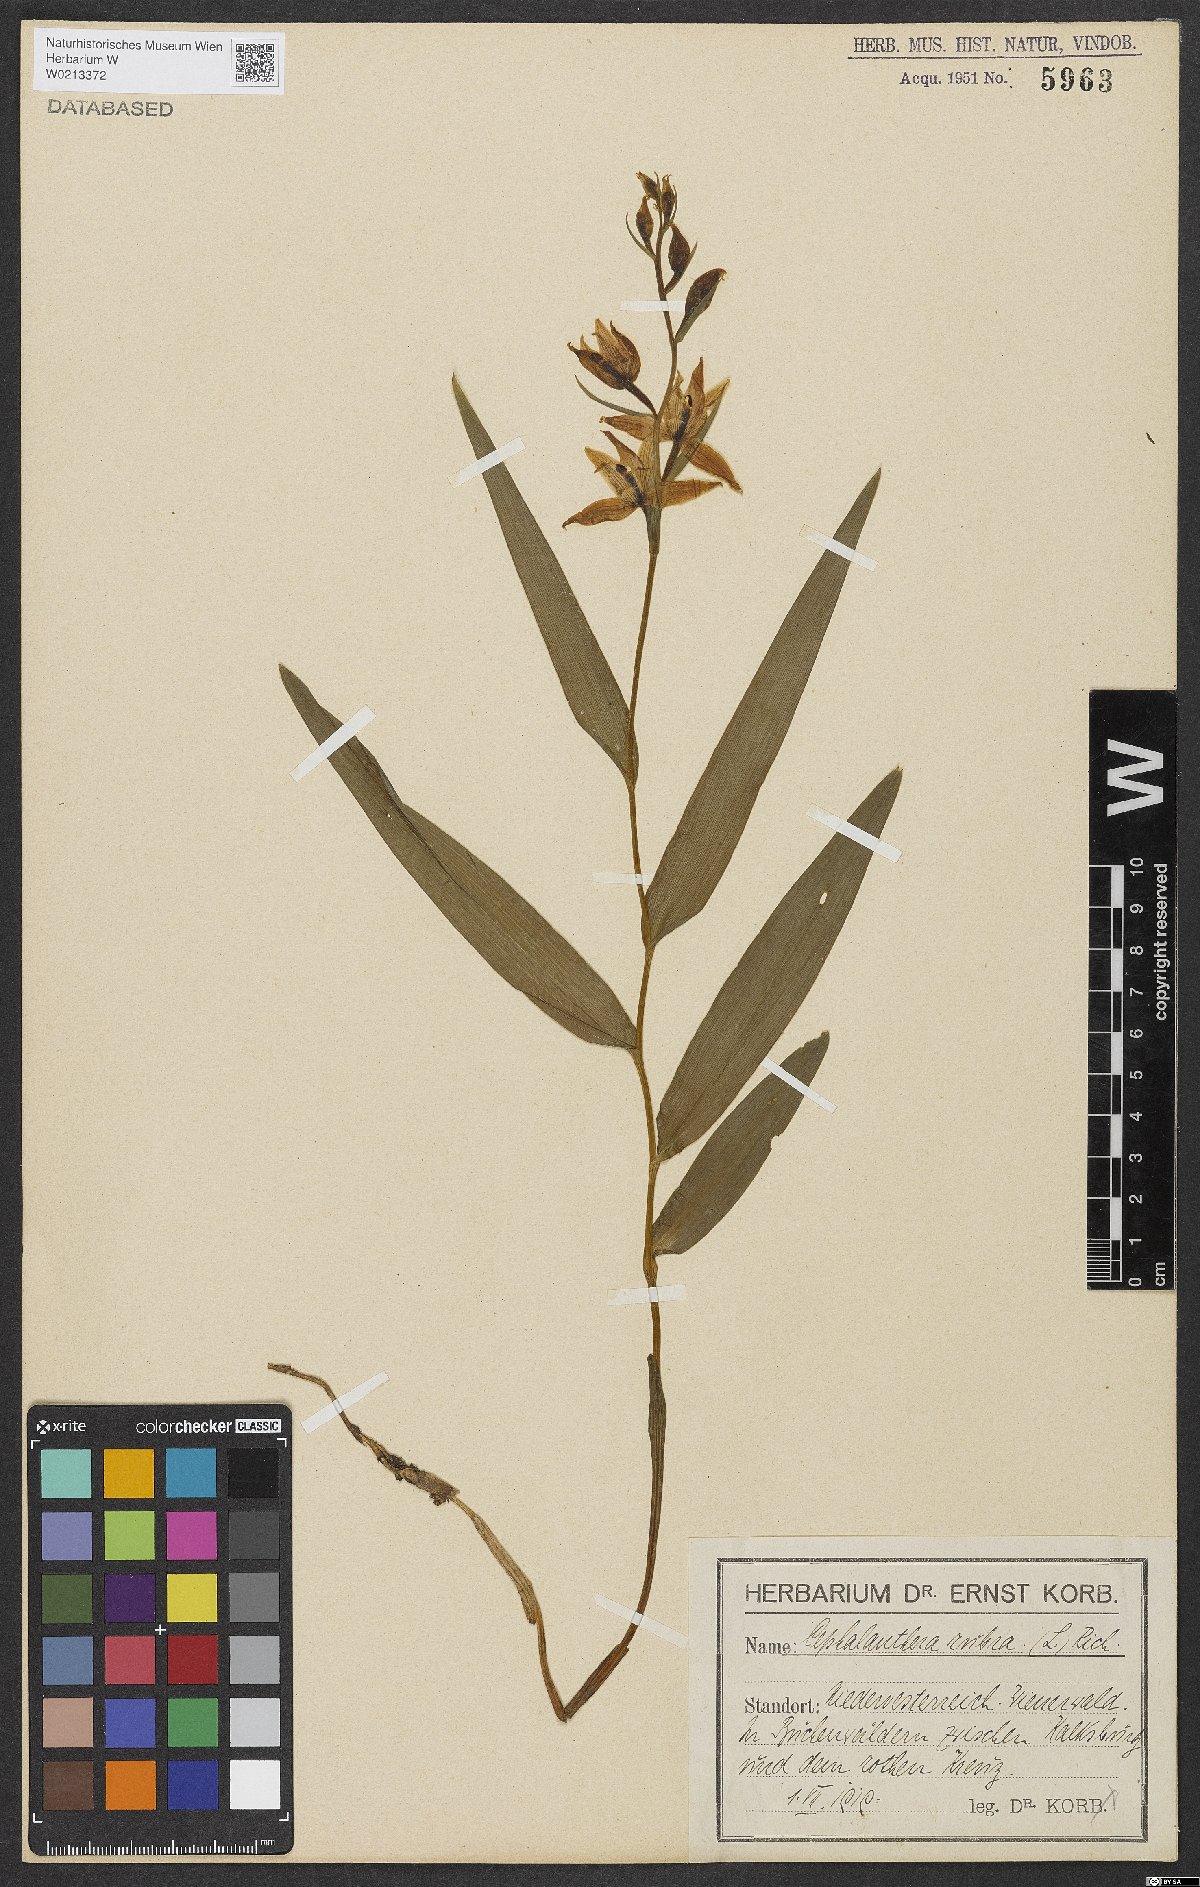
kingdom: Plantae
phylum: Tracheophyta
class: Liliopsida
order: Asparagales
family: Orchidaceae
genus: Cephalanthera
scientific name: Cephalanthera rubra
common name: Red helleborine
